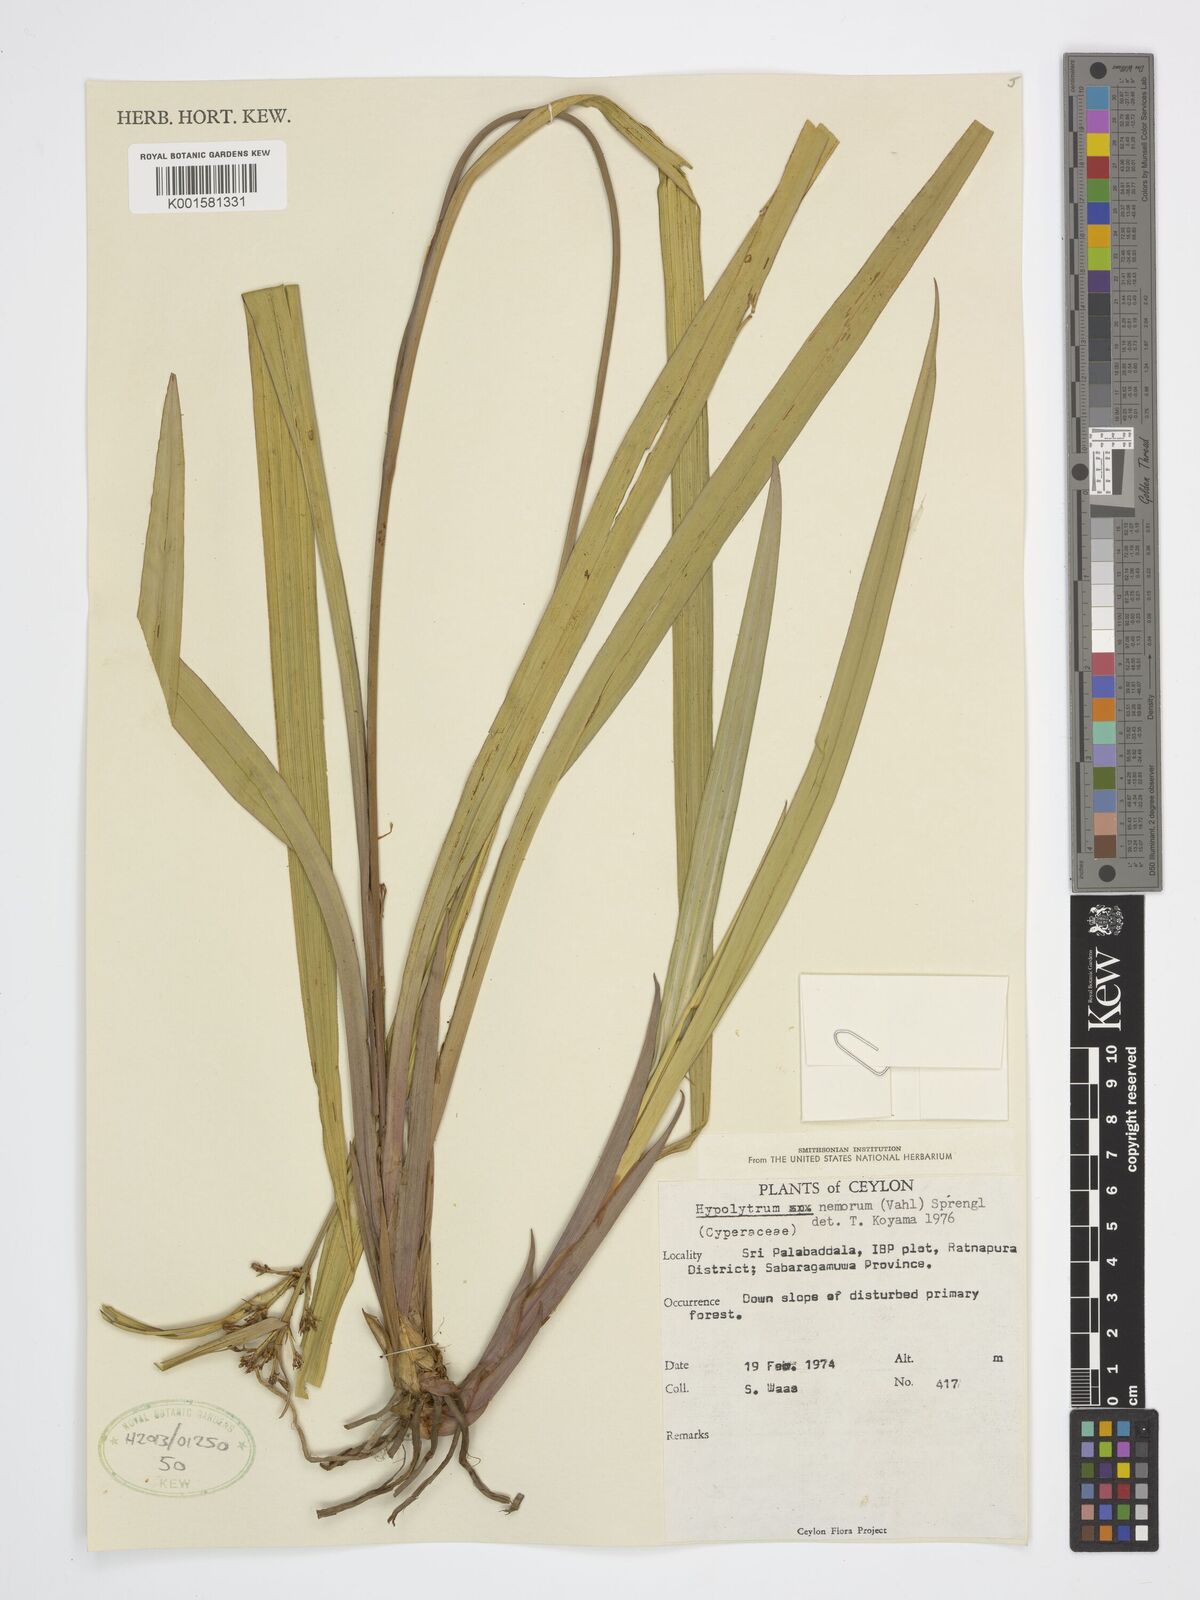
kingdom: Plantae
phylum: Tracheophyta
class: Liliopsida
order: Poales
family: Cyperaceae
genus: Hypolytrum
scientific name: Hypolytrum nemorum
